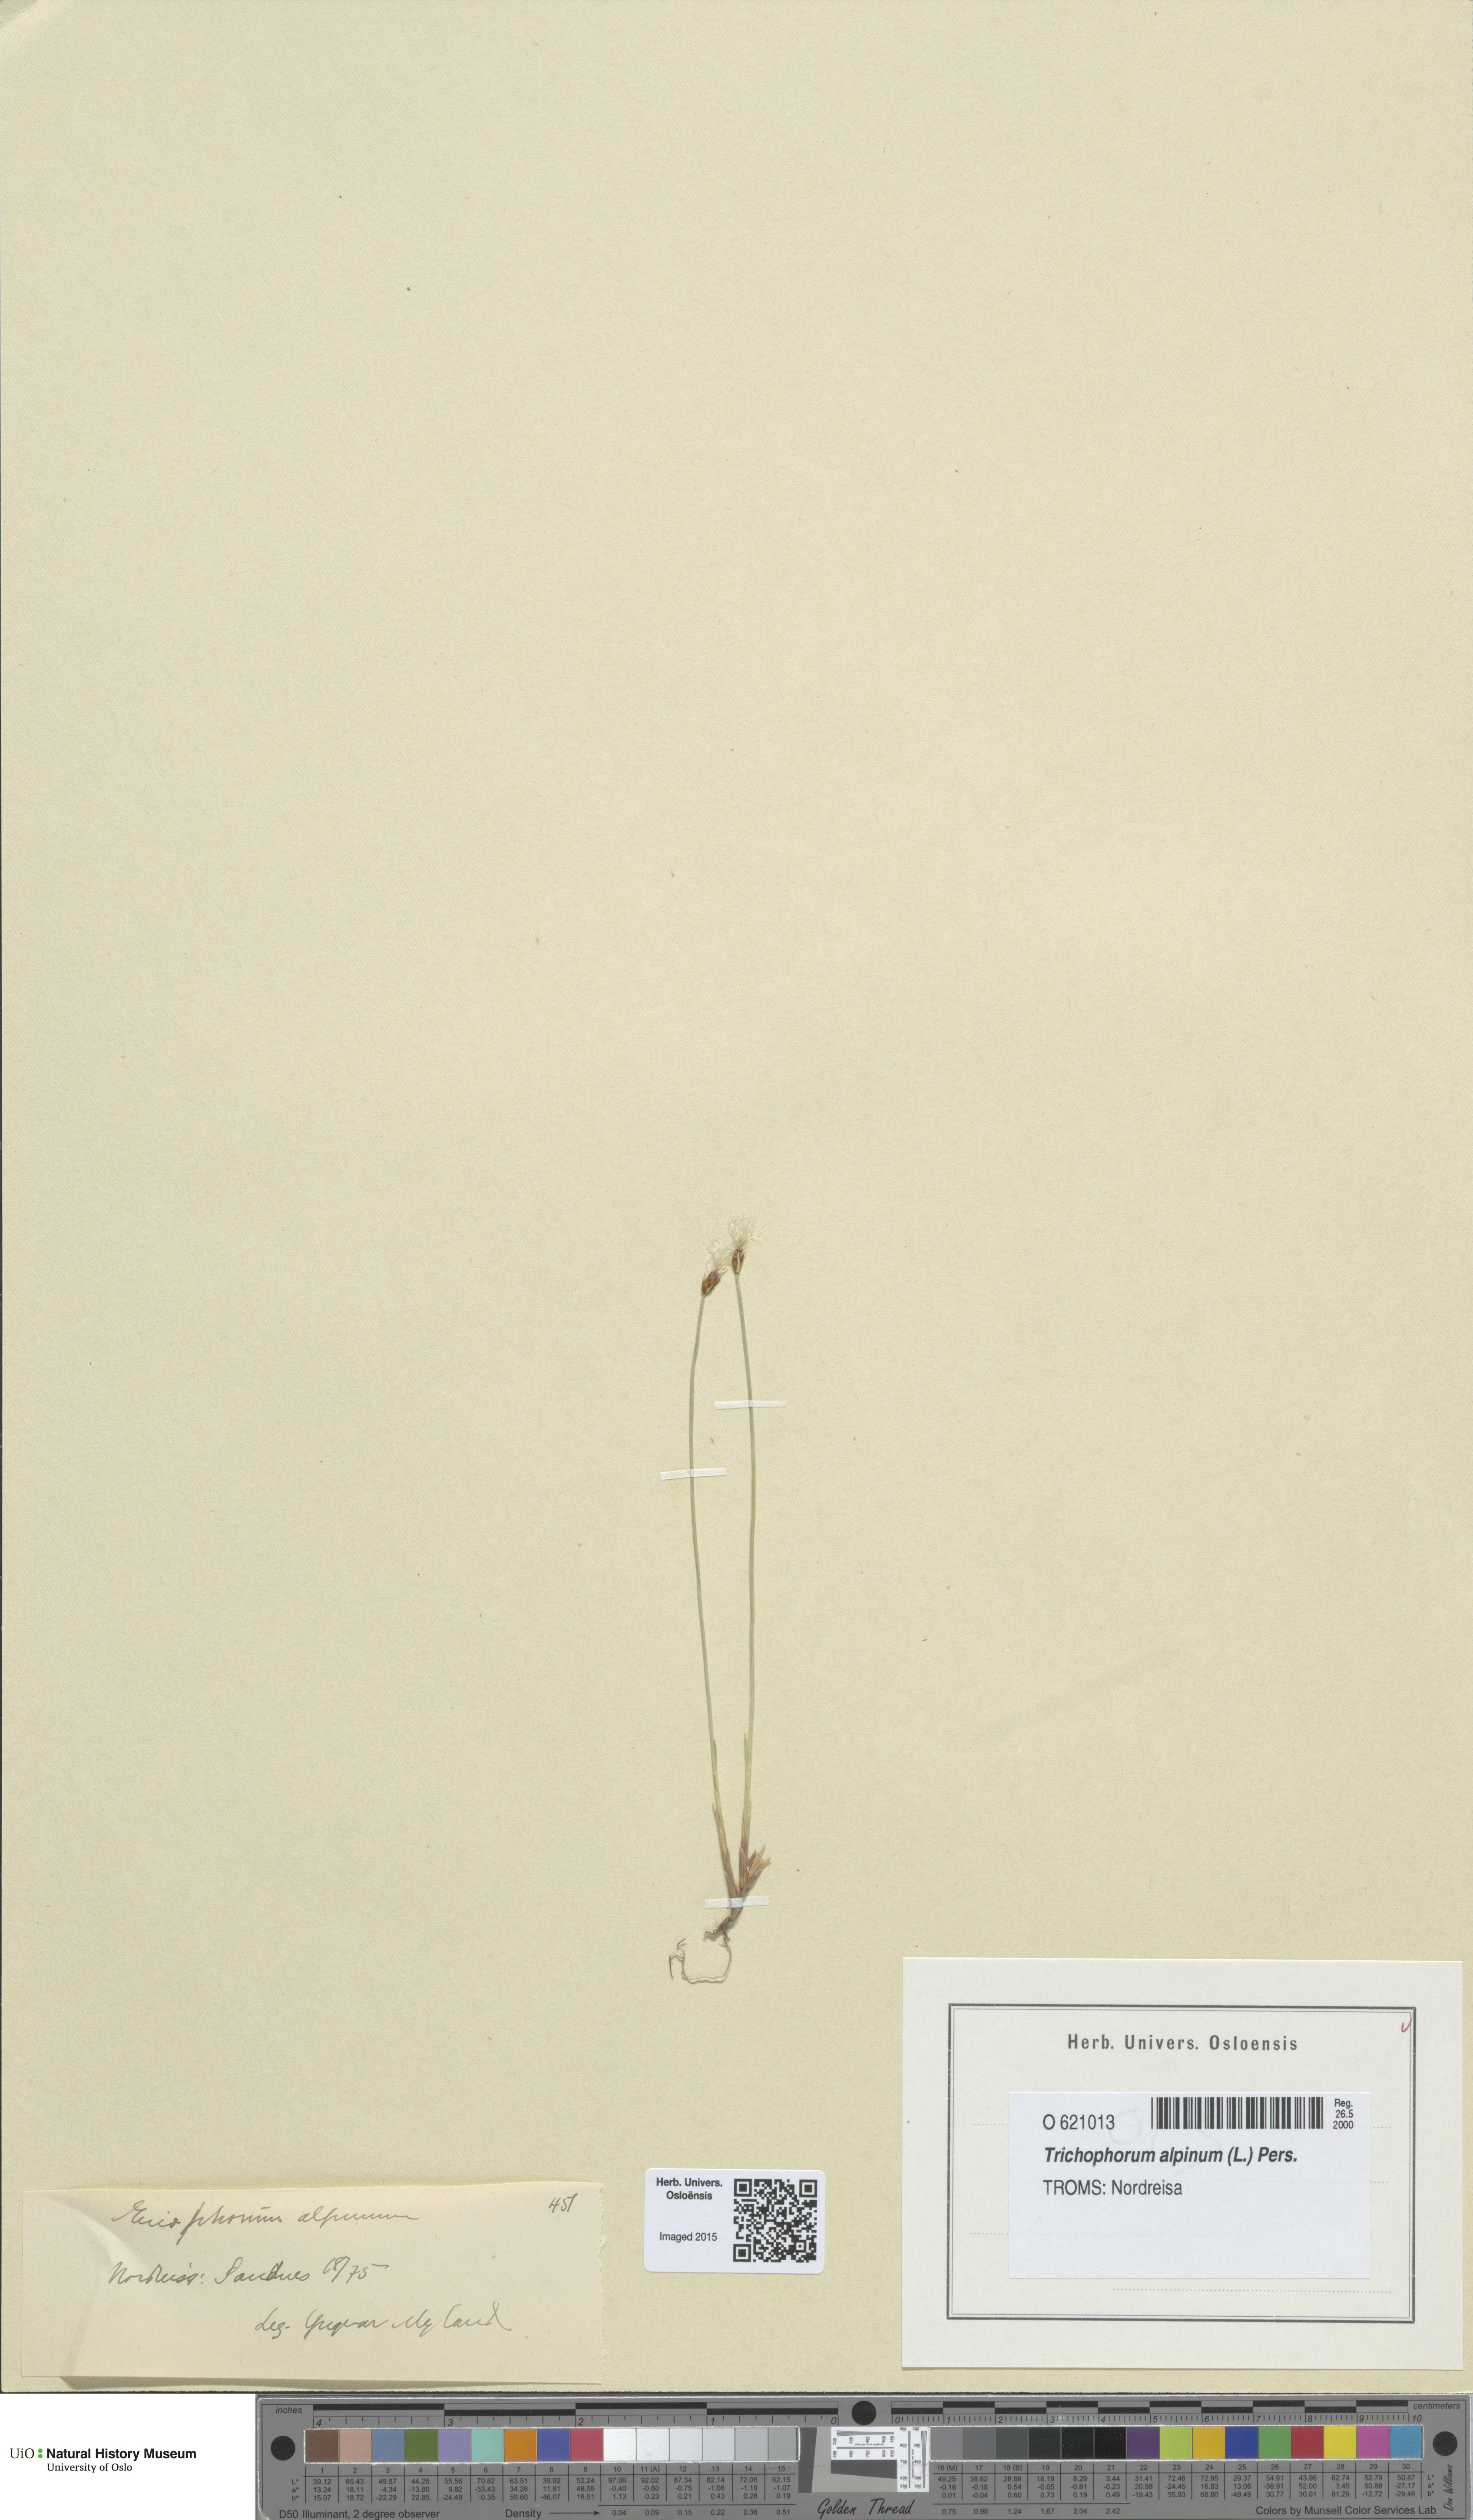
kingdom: Plantae
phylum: Tracheophyta
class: Liliopsida
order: Poales
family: Cyperaceae
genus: Trichophorum
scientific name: Trichophorum alpinum
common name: Alpine bulrush
